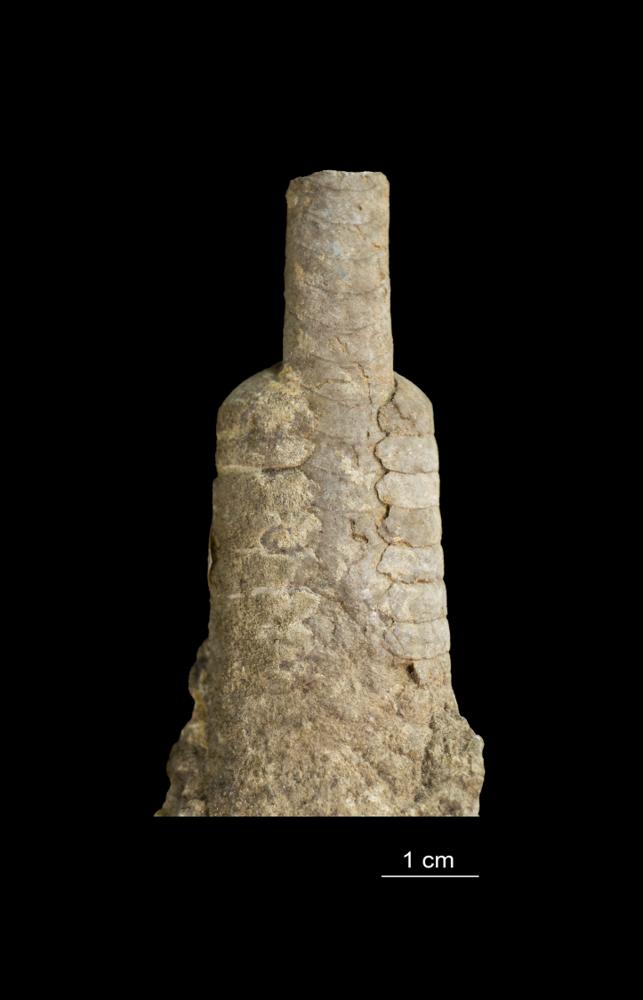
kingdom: Animalia
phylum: Mollusca
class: Cephalopoda
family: Endoceratidae
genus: Endoceras
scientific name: Endoceras
